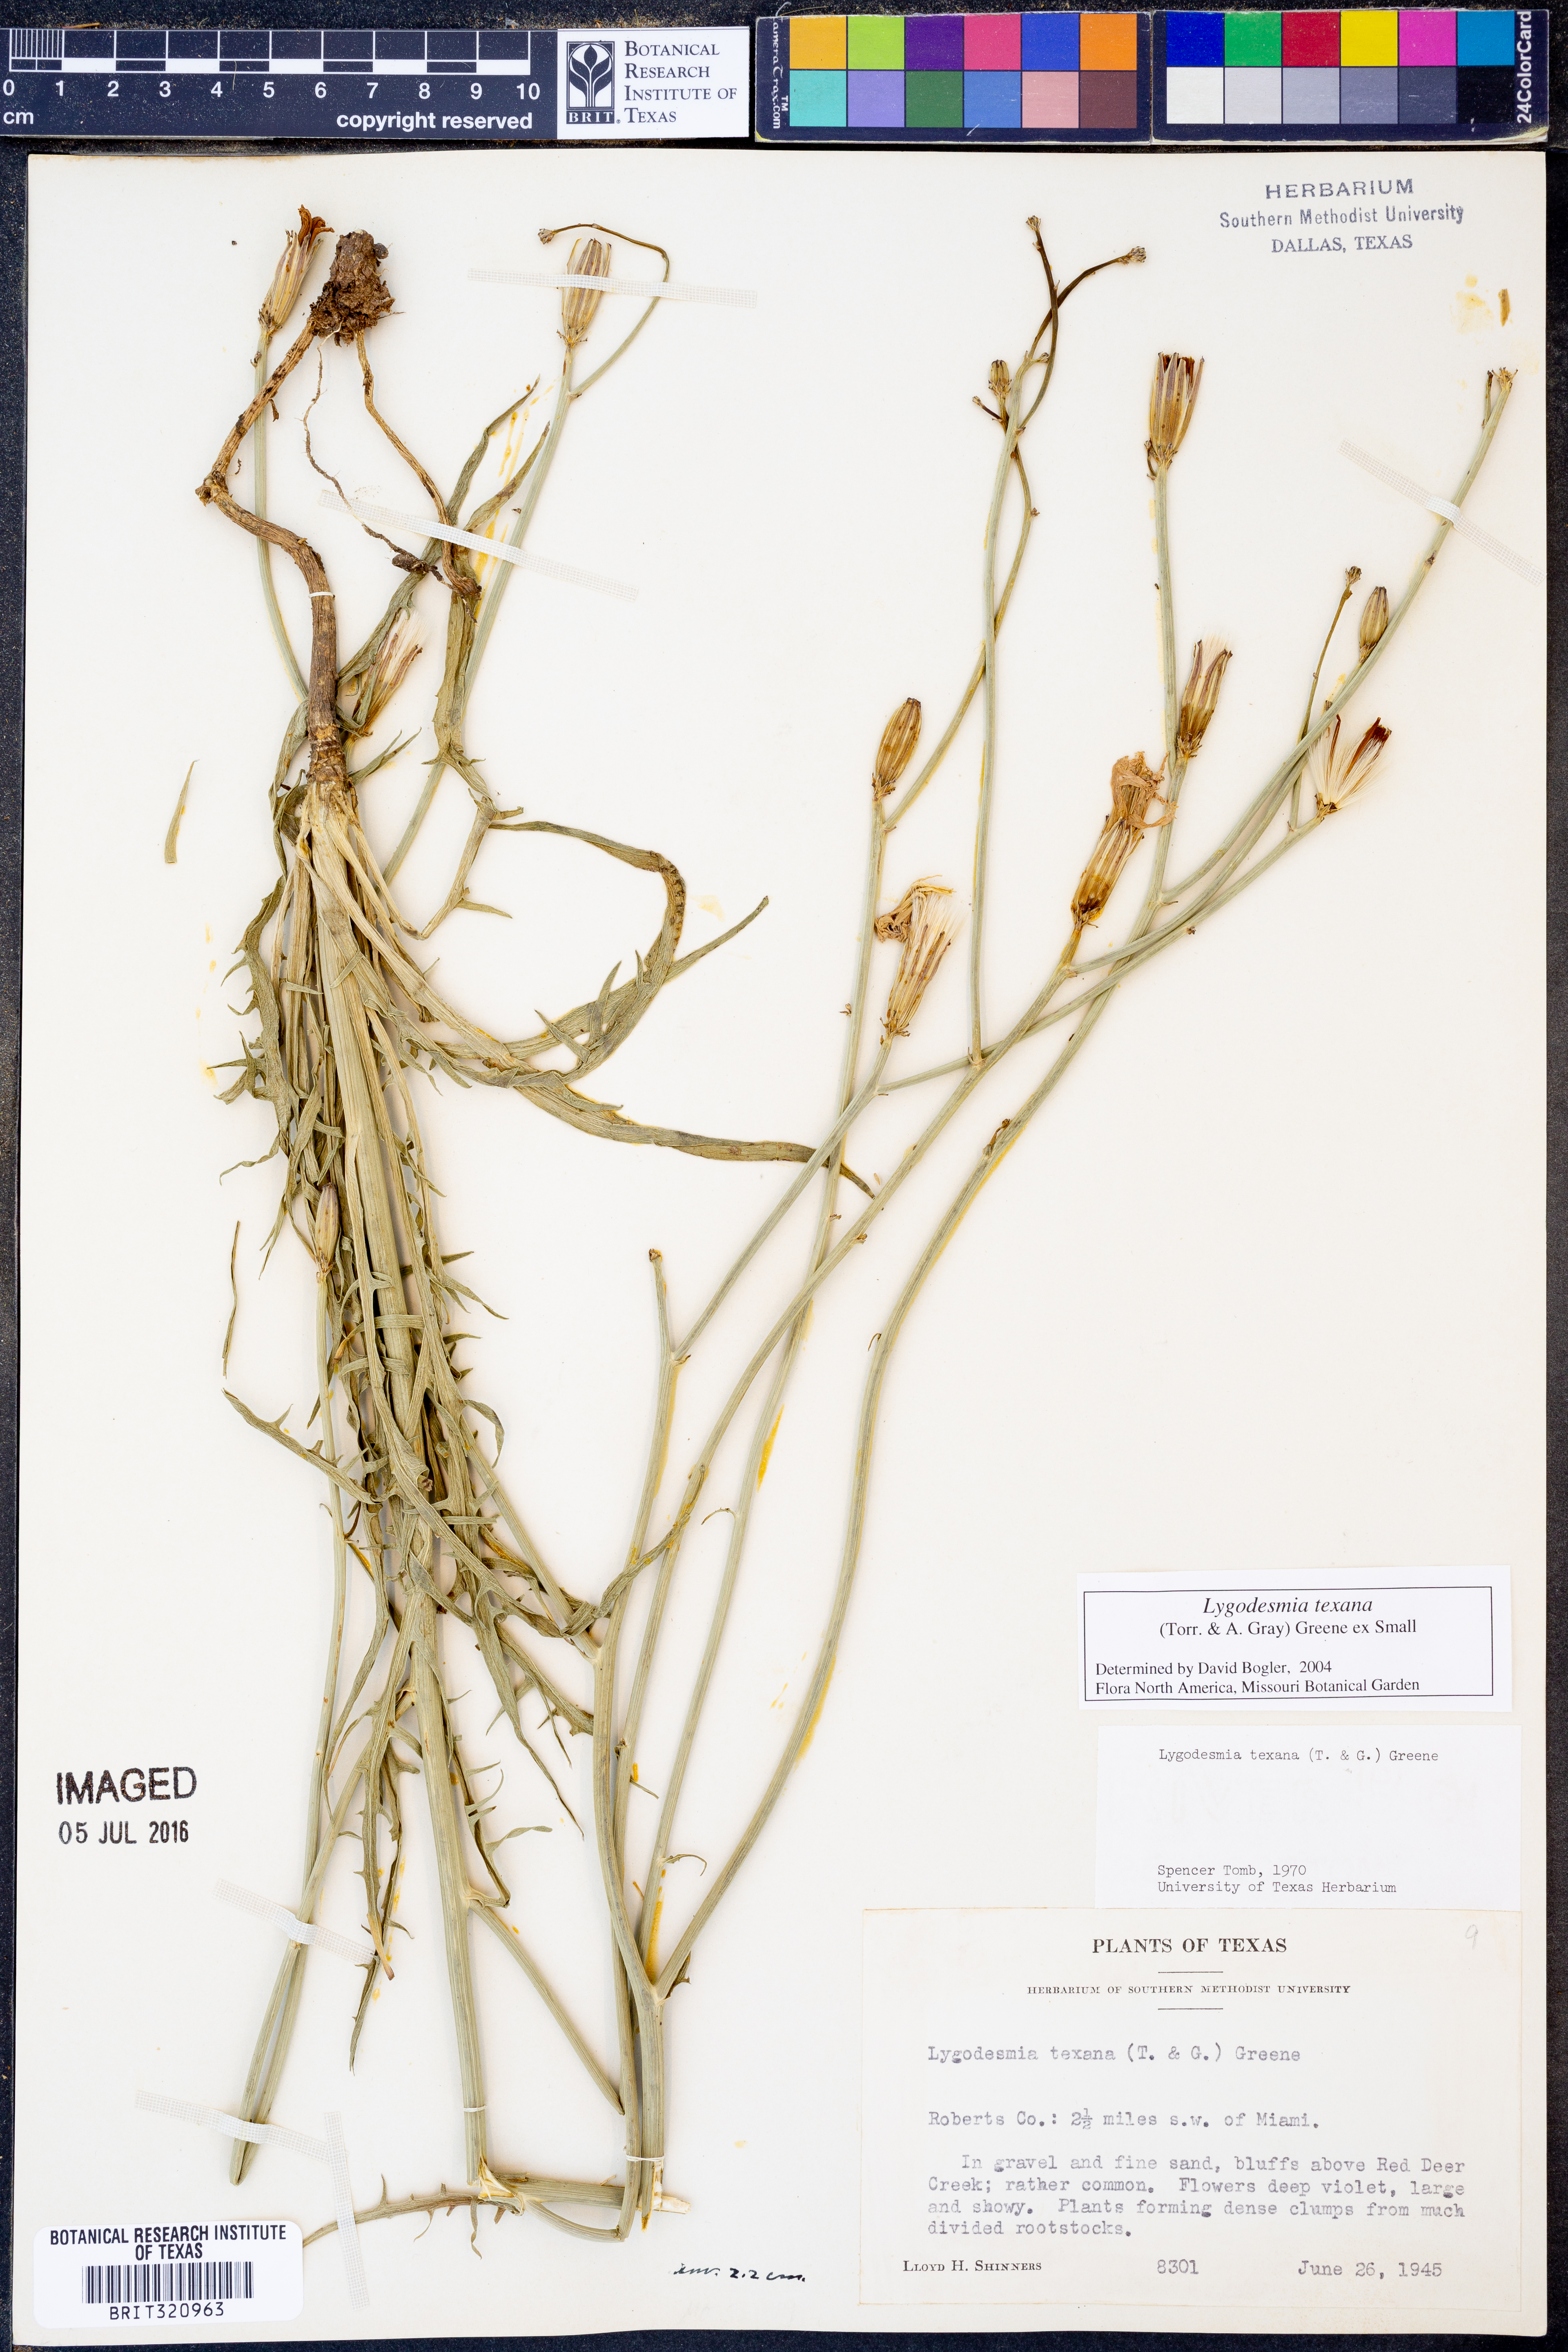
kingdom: Plantae
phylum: Tracheophyta
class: Magnoliopsida
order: Asterales
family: Asteraceae
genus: Lygodesmia
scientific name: Lygodesmia texana
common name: Texas skeleton-plant
